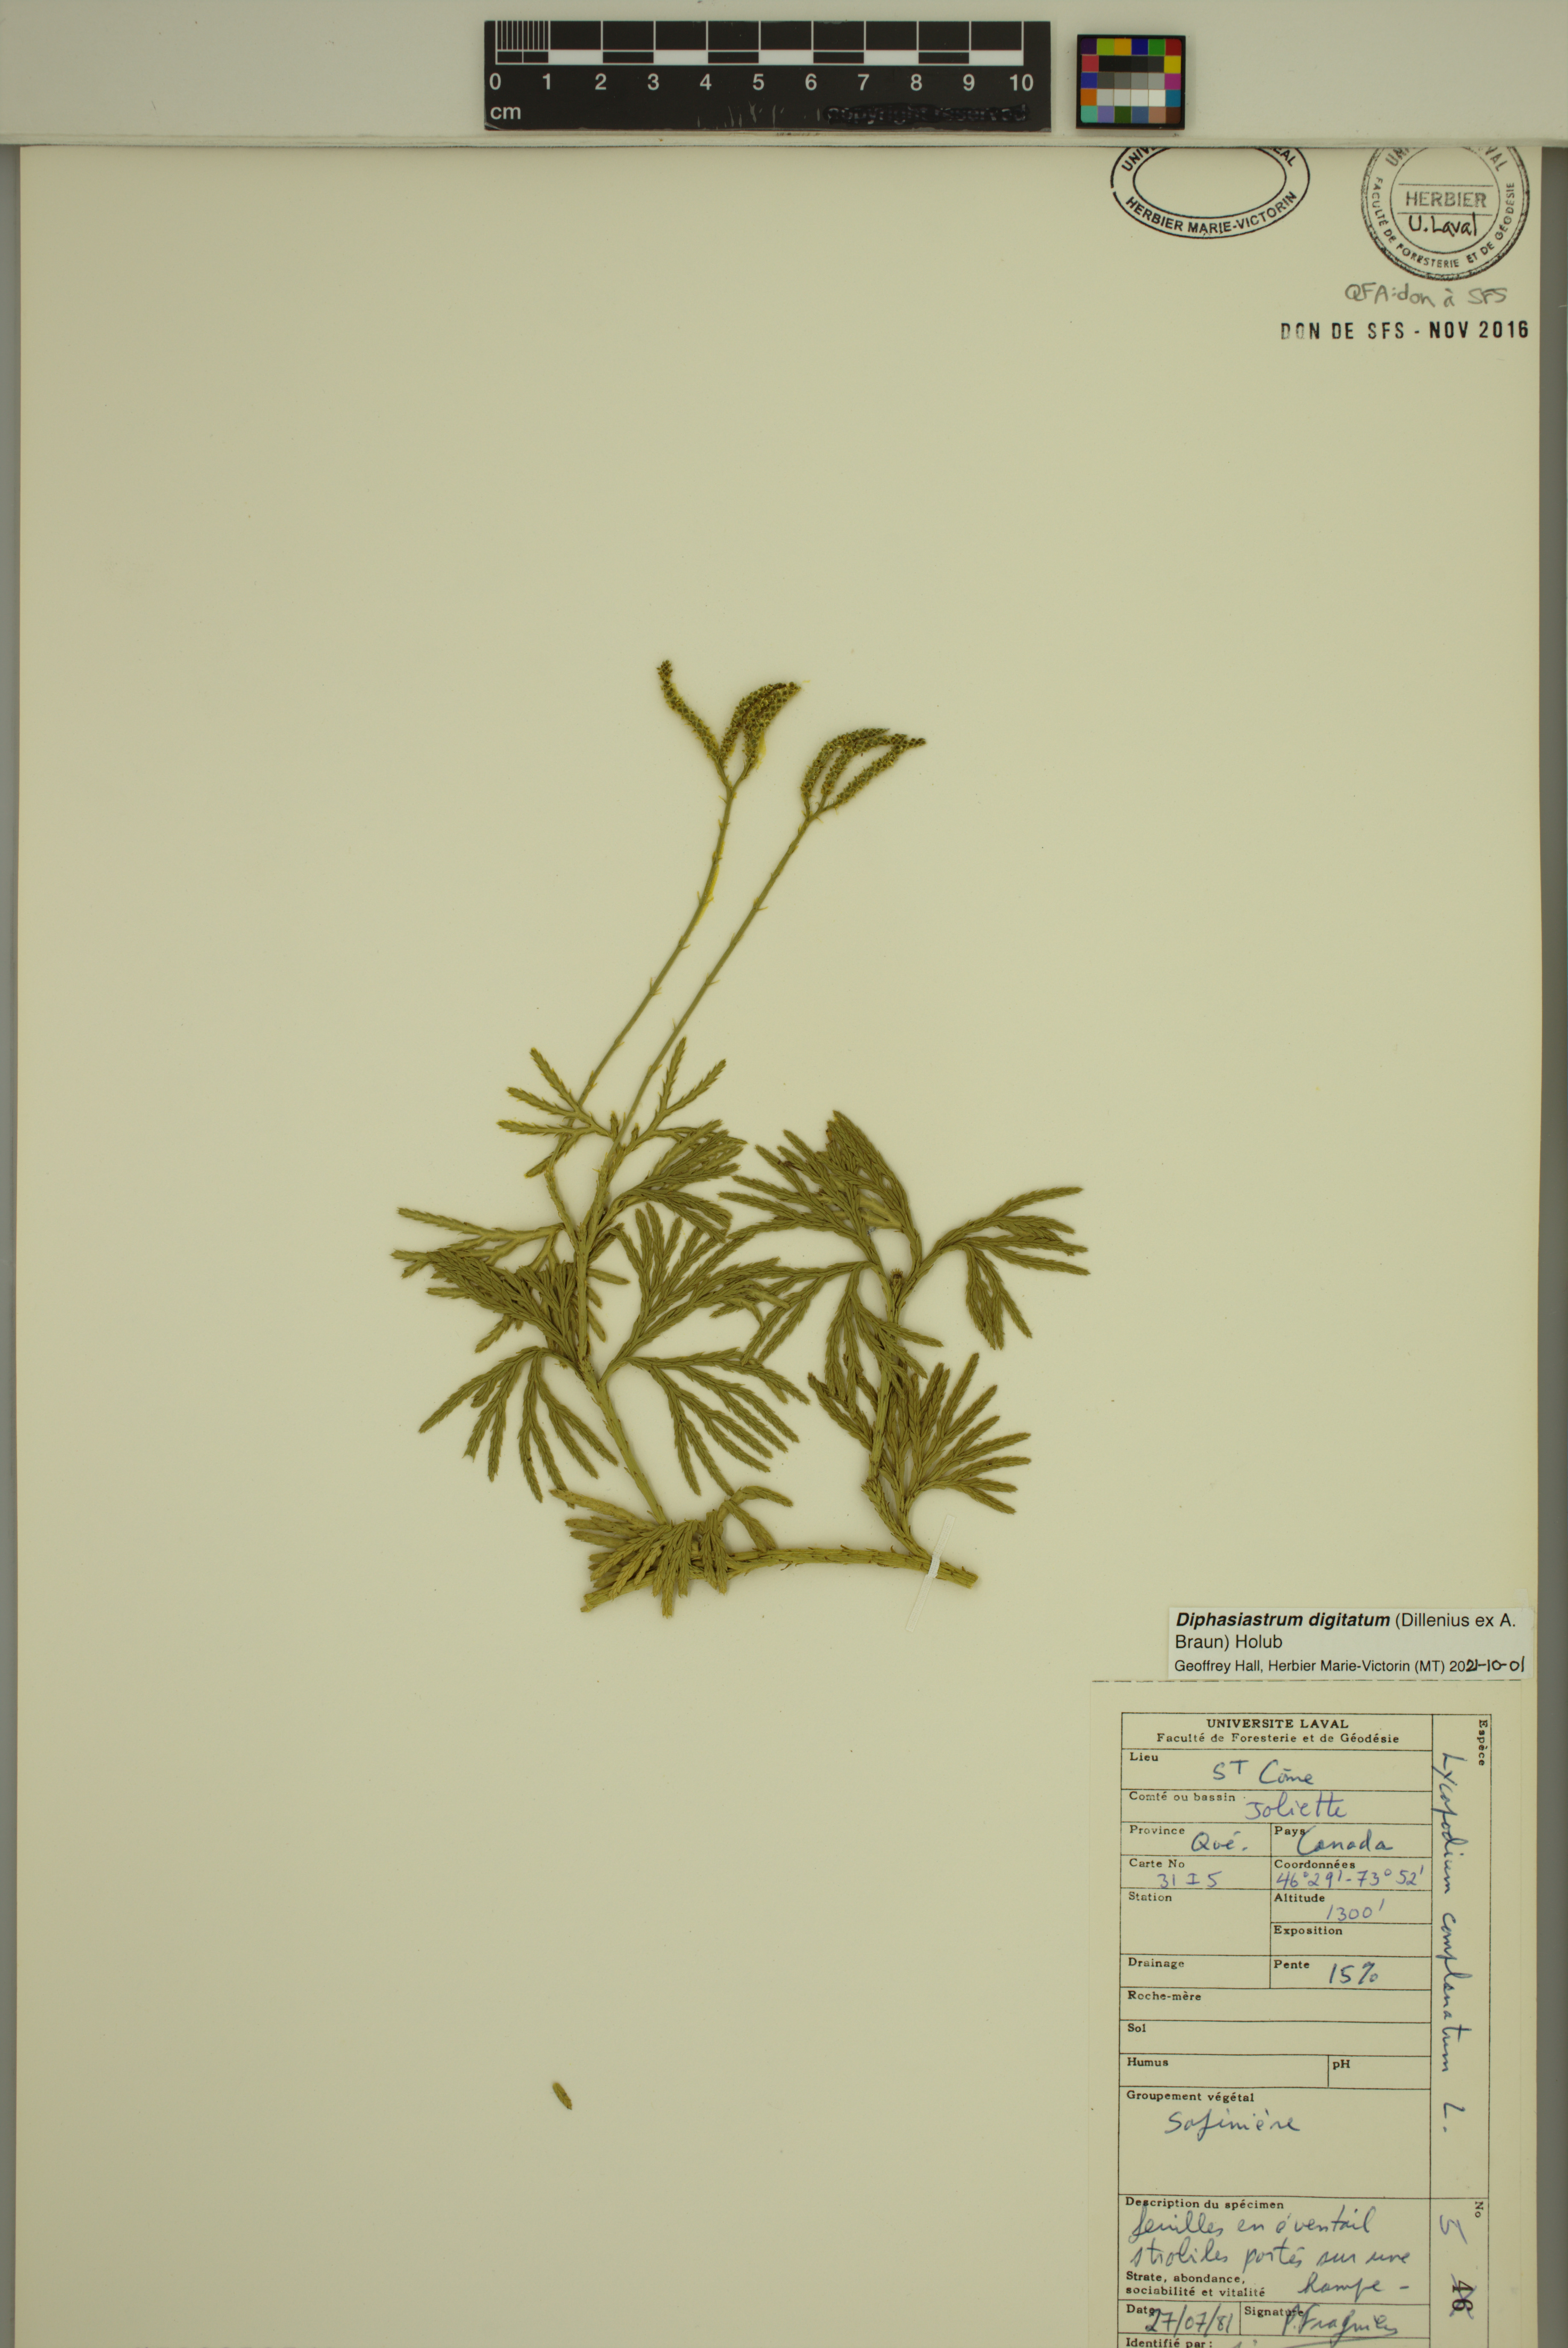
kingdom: Plantae
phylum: Tracheophyta
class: Lycopodiopsida
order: Lycopodiales
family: Lycopodiaceae
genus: Diphasiastrum
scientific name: Diphasiastrum digitatum
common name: Southern running-pine
